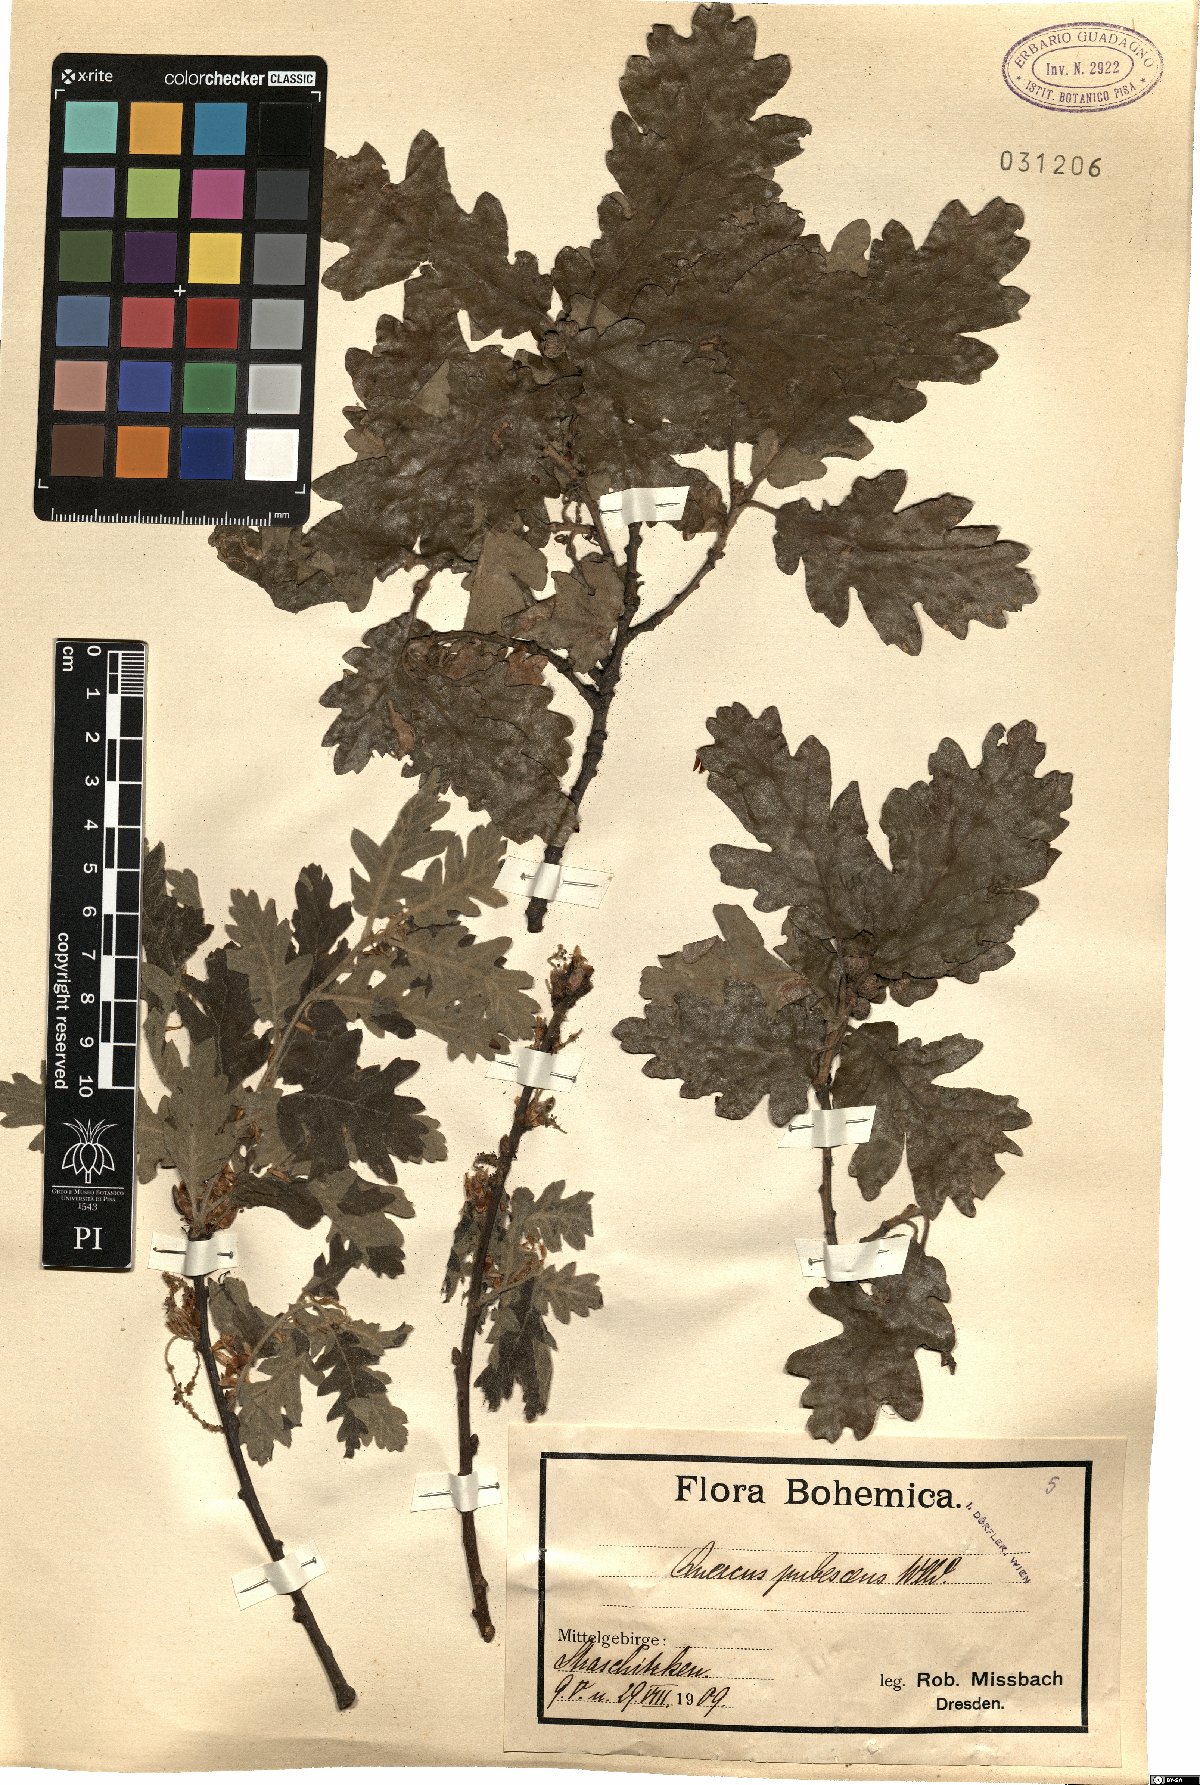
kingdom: Plantae
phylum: Tracheophyta
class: Magnoliopsida
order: Fagales
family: Fagaceae
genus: Quercus
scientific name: Quercus pubescens
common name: Downy oak
